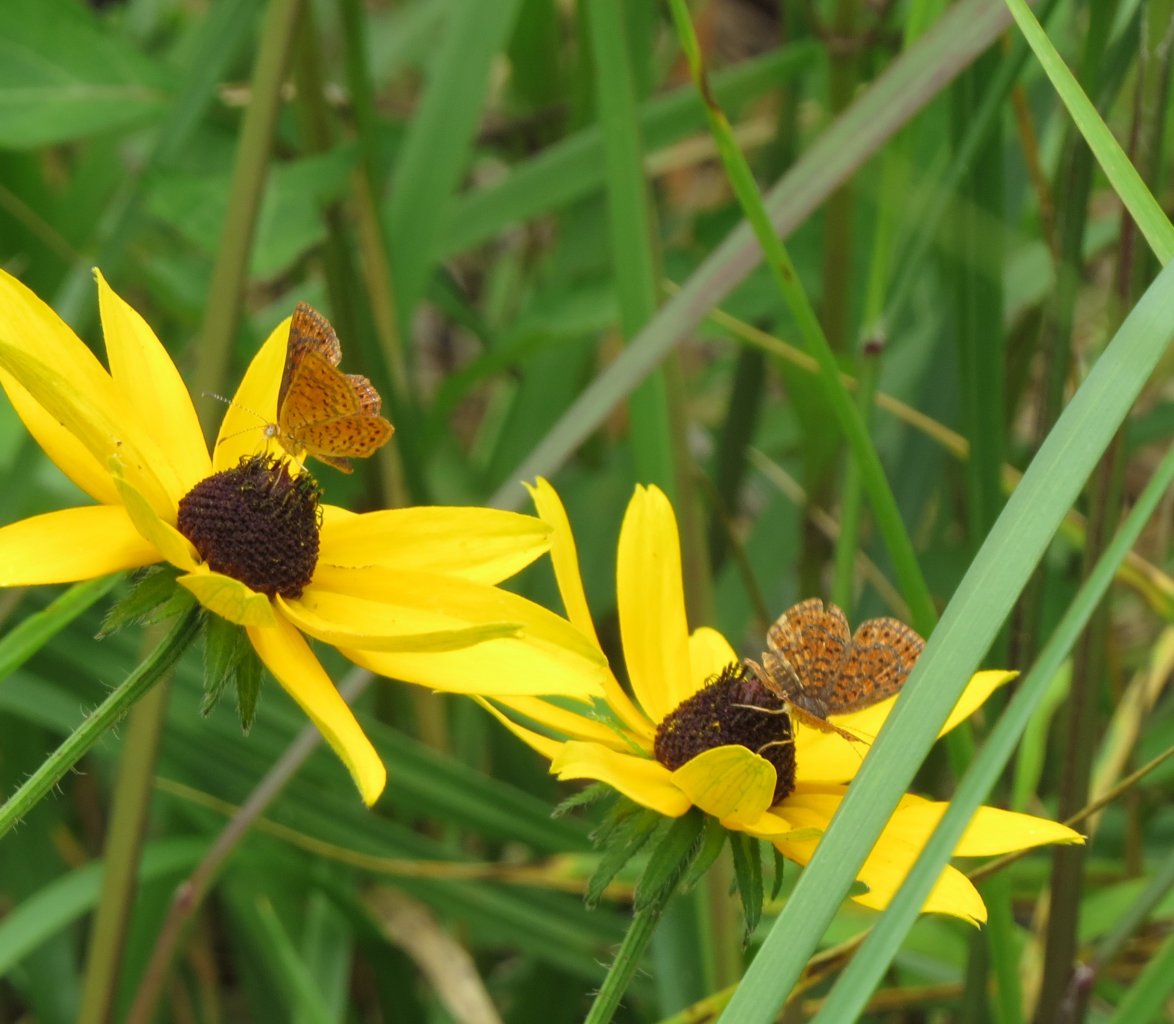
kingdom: Animalia
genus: Calephelis
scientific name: Calephelis virginiensis
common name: Little Metalmark
